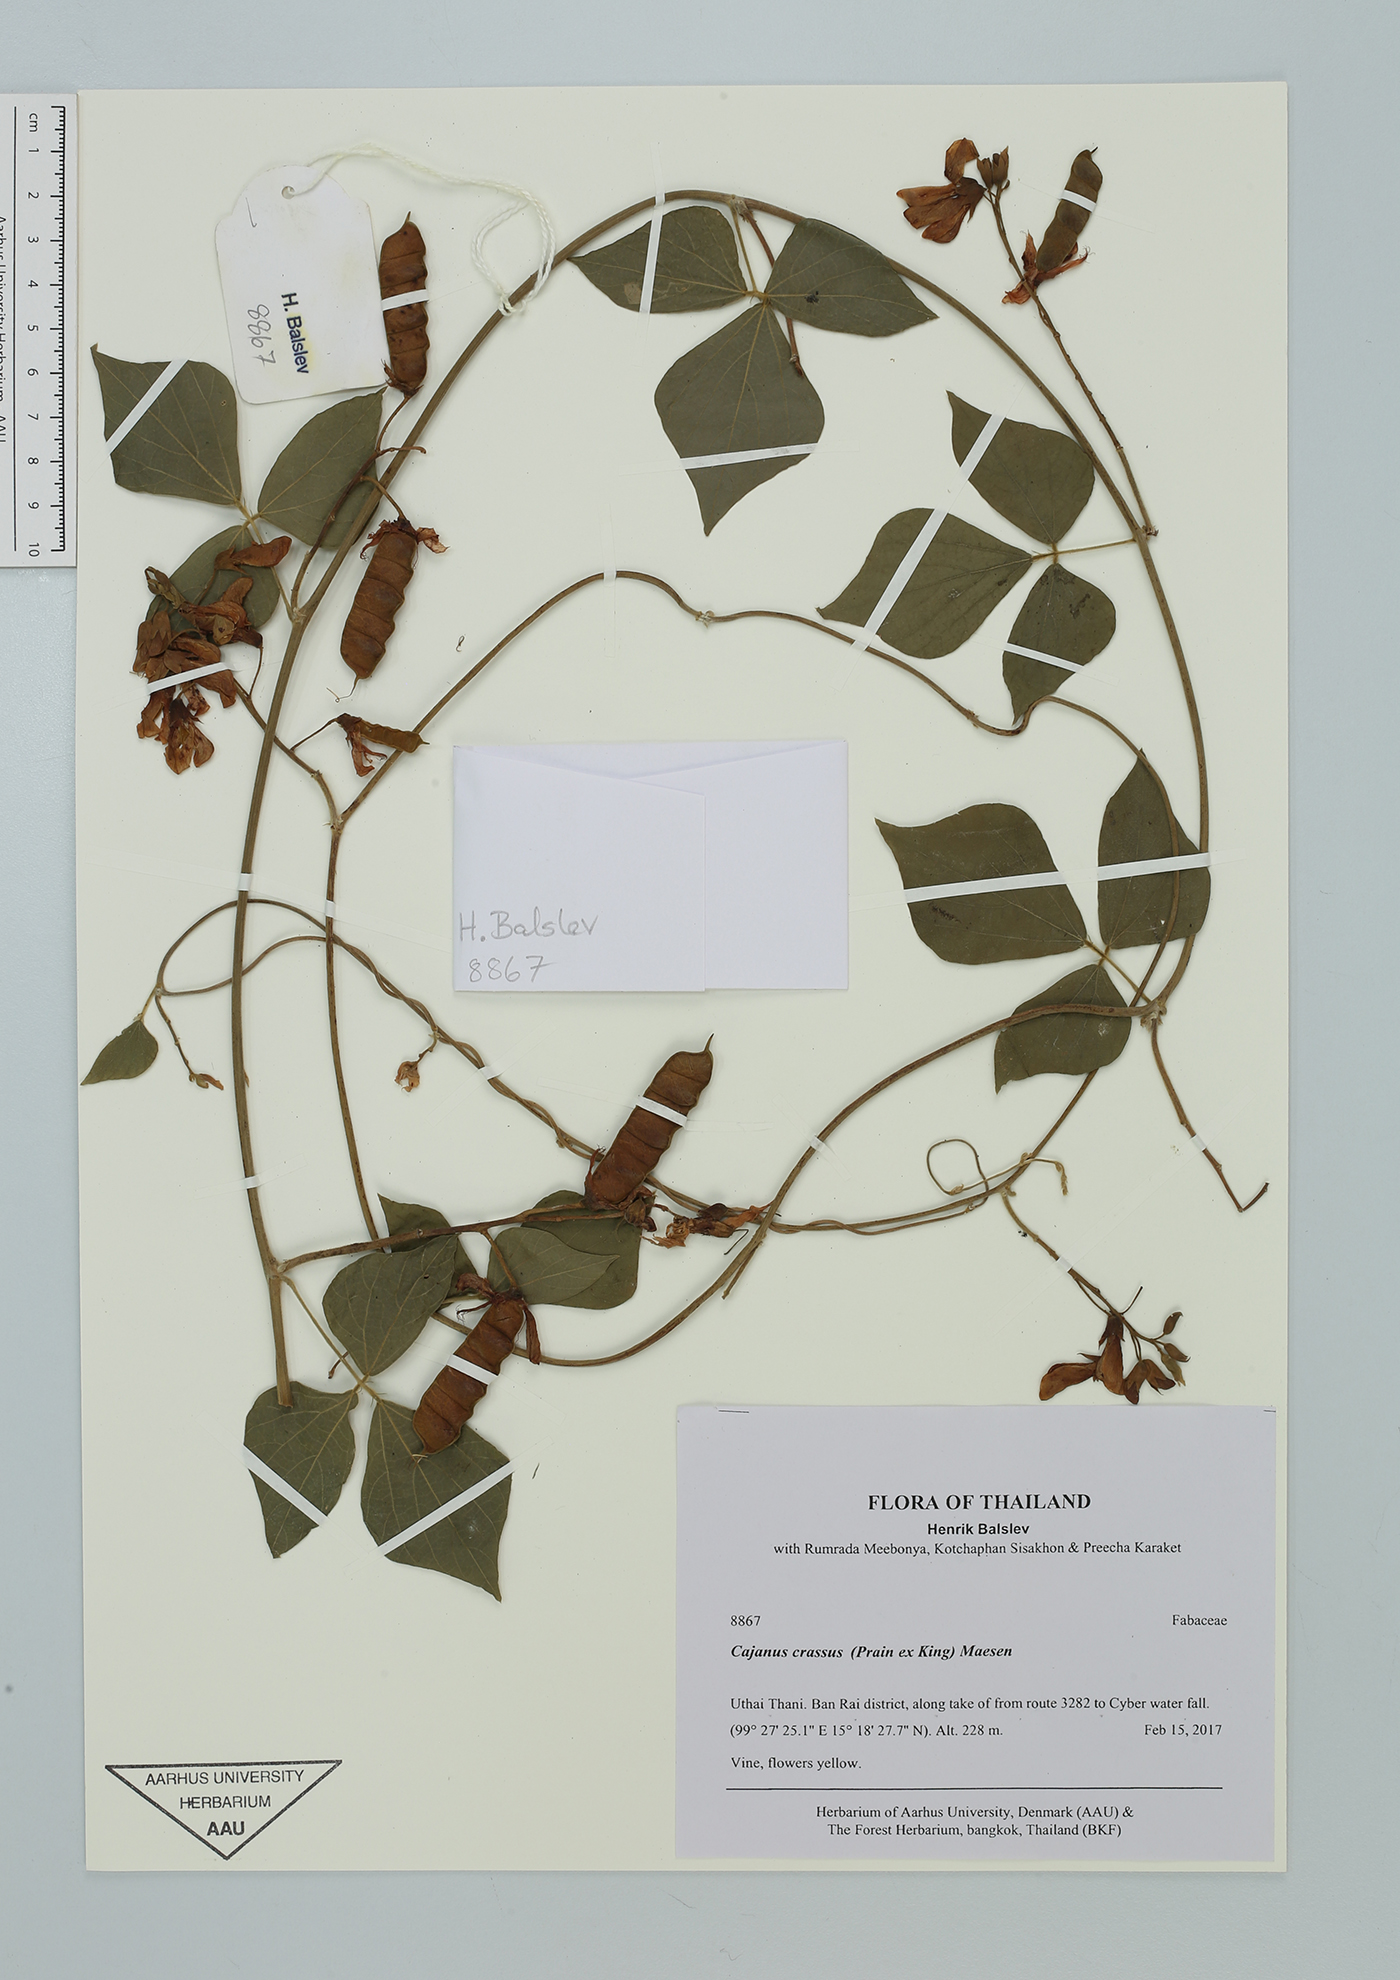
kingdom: Plantae
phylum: Tracheophyta
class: Magnoliopsida
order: Fabales
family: Fabaceae
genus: Cajanus
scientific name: Cajanus crassus
